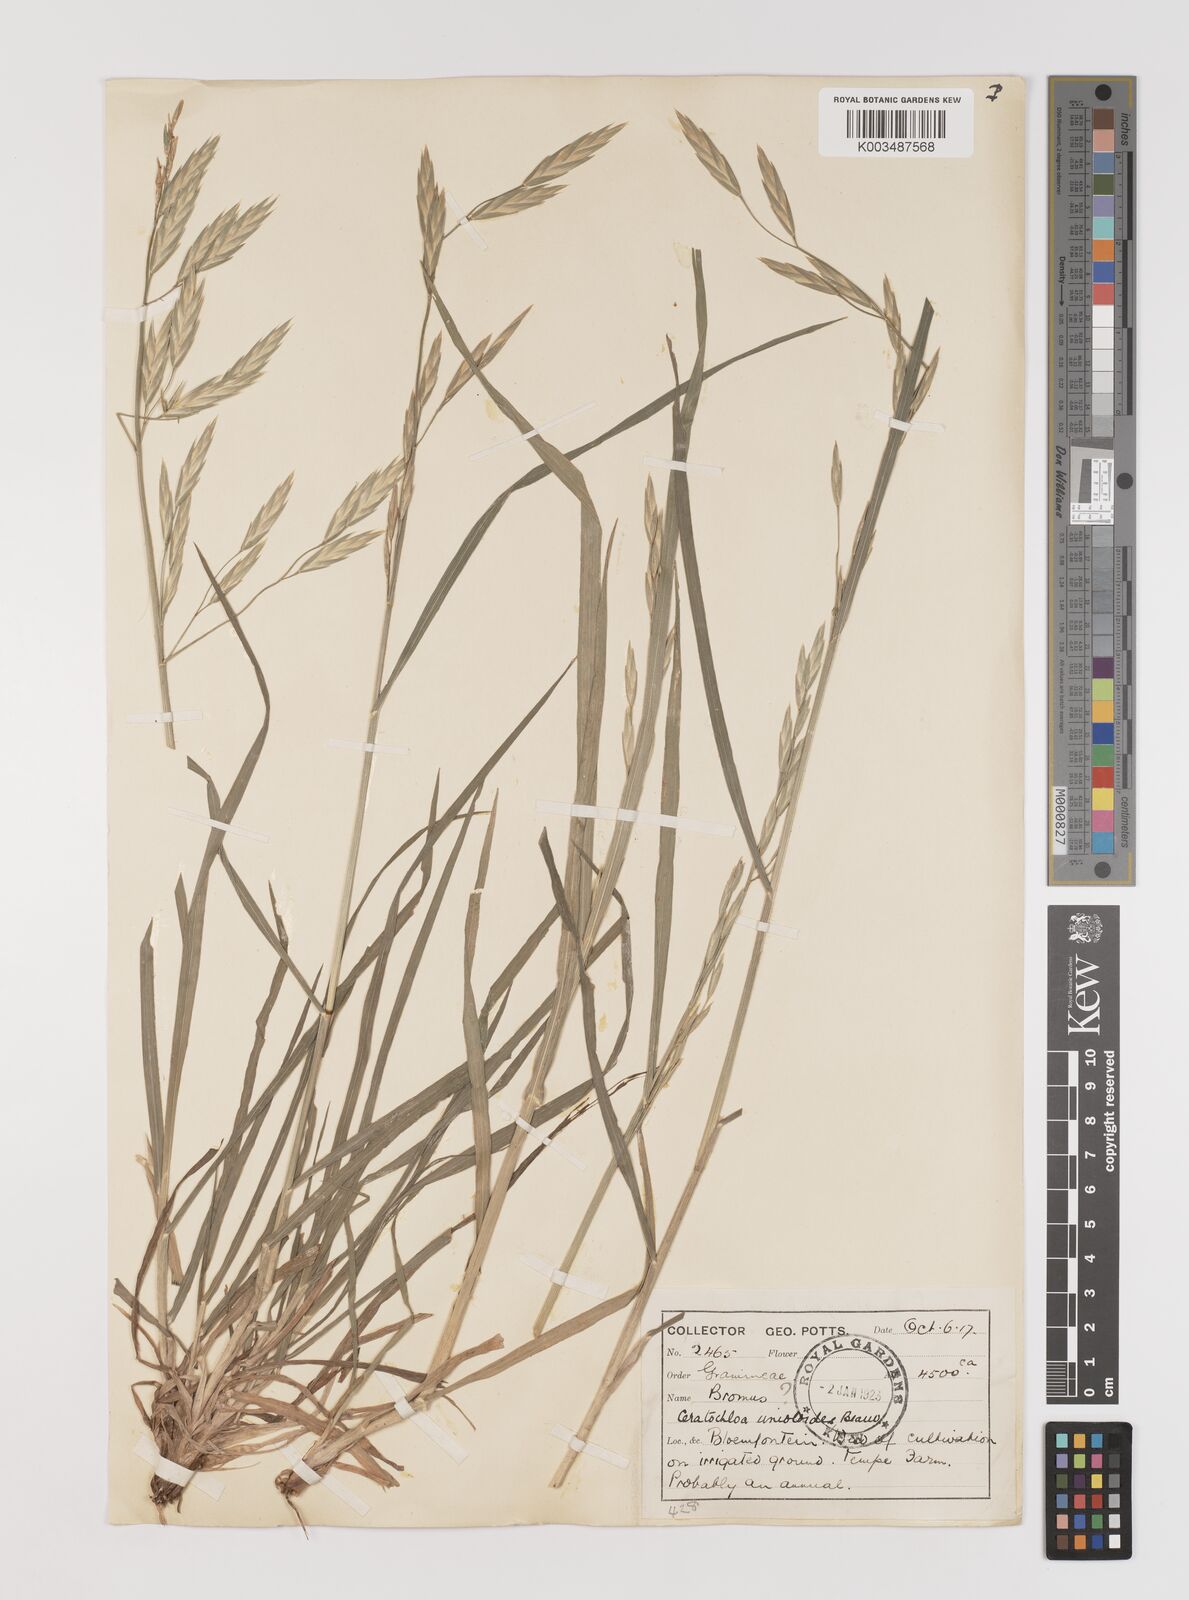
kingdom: Plantae
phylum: Tracheophyta
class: Liliopsida
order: Poales
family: Poaceae
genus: Bromus
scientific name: Bromus catharticus
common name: Rescuegrass
